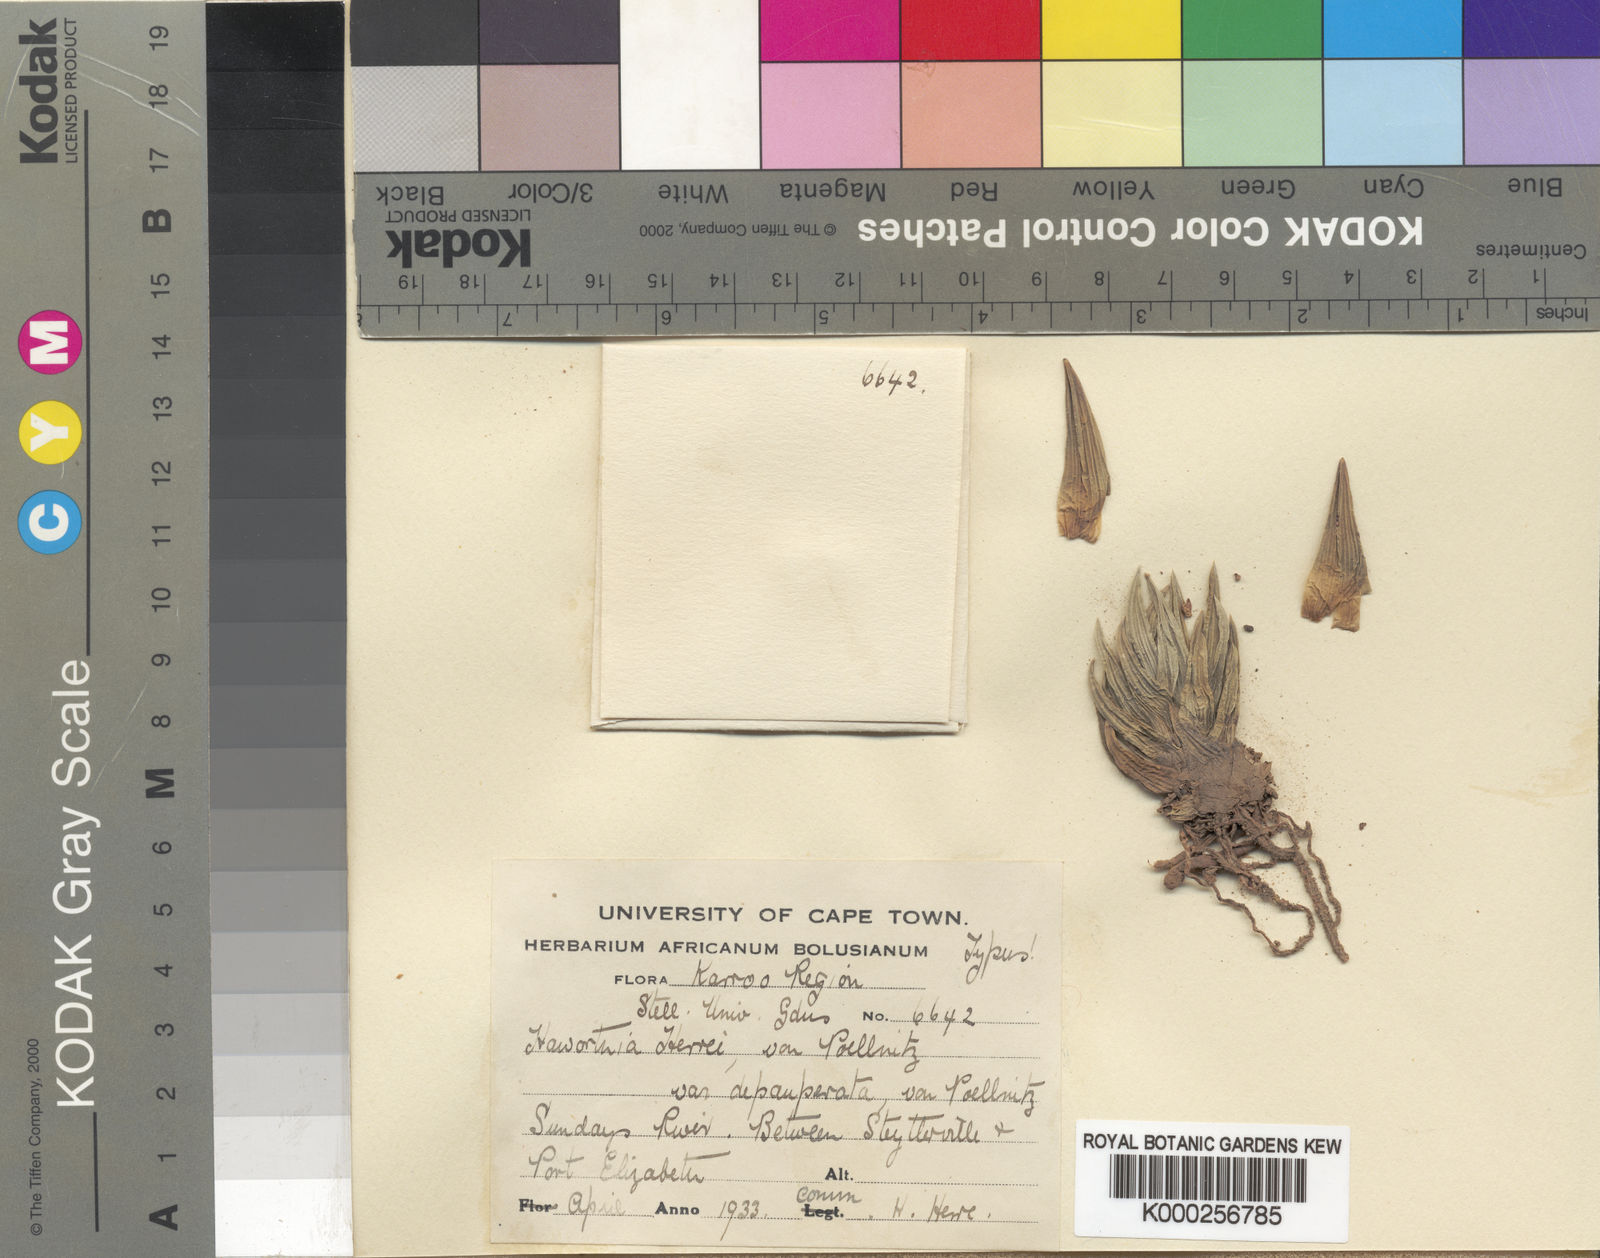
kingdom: Plantae
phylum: Tracheophyta
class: Liliopsida
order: Asparagales
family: Asphodelaceae
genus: Haworthiopsis
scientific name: Haworthiopsis glauca
